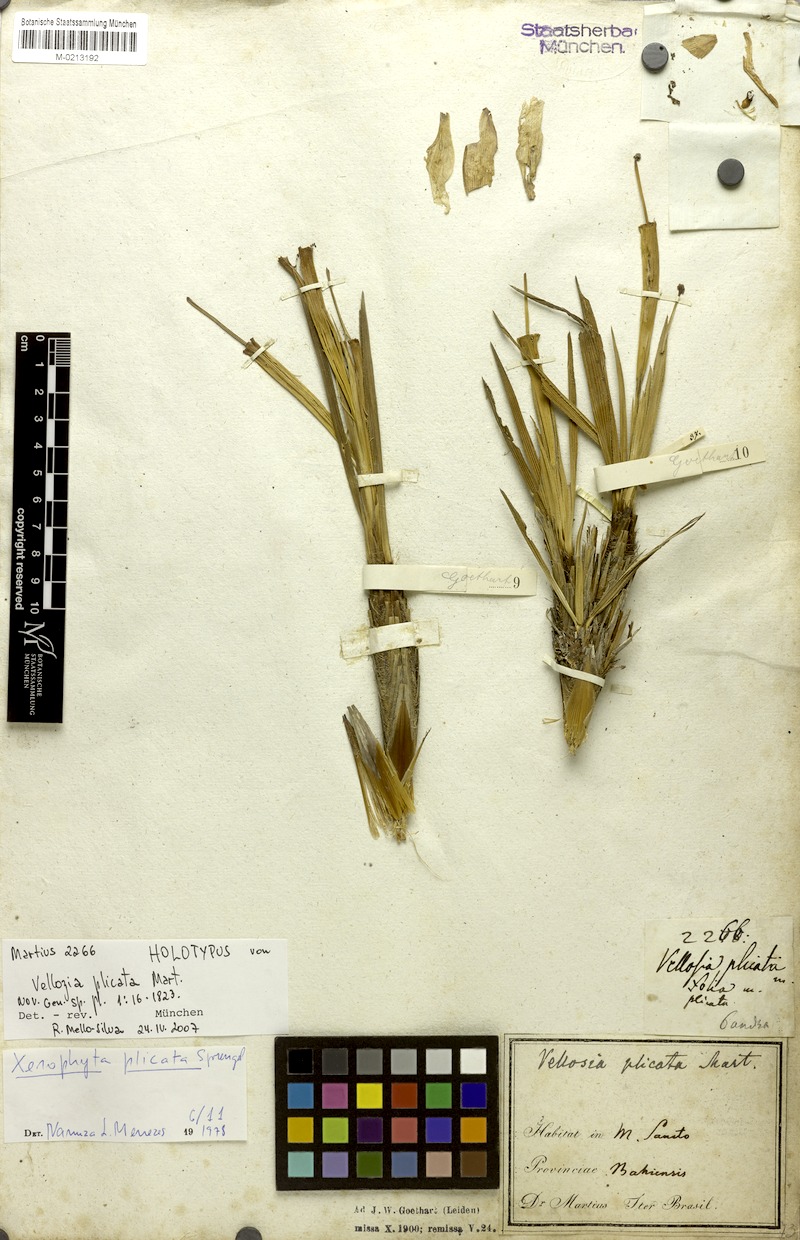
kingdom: Plantae
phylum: Tracheophyta
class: Liliopsida
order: Pandanales
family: Velloziaceae
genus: Nanuza
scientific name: Nanuza plicata
